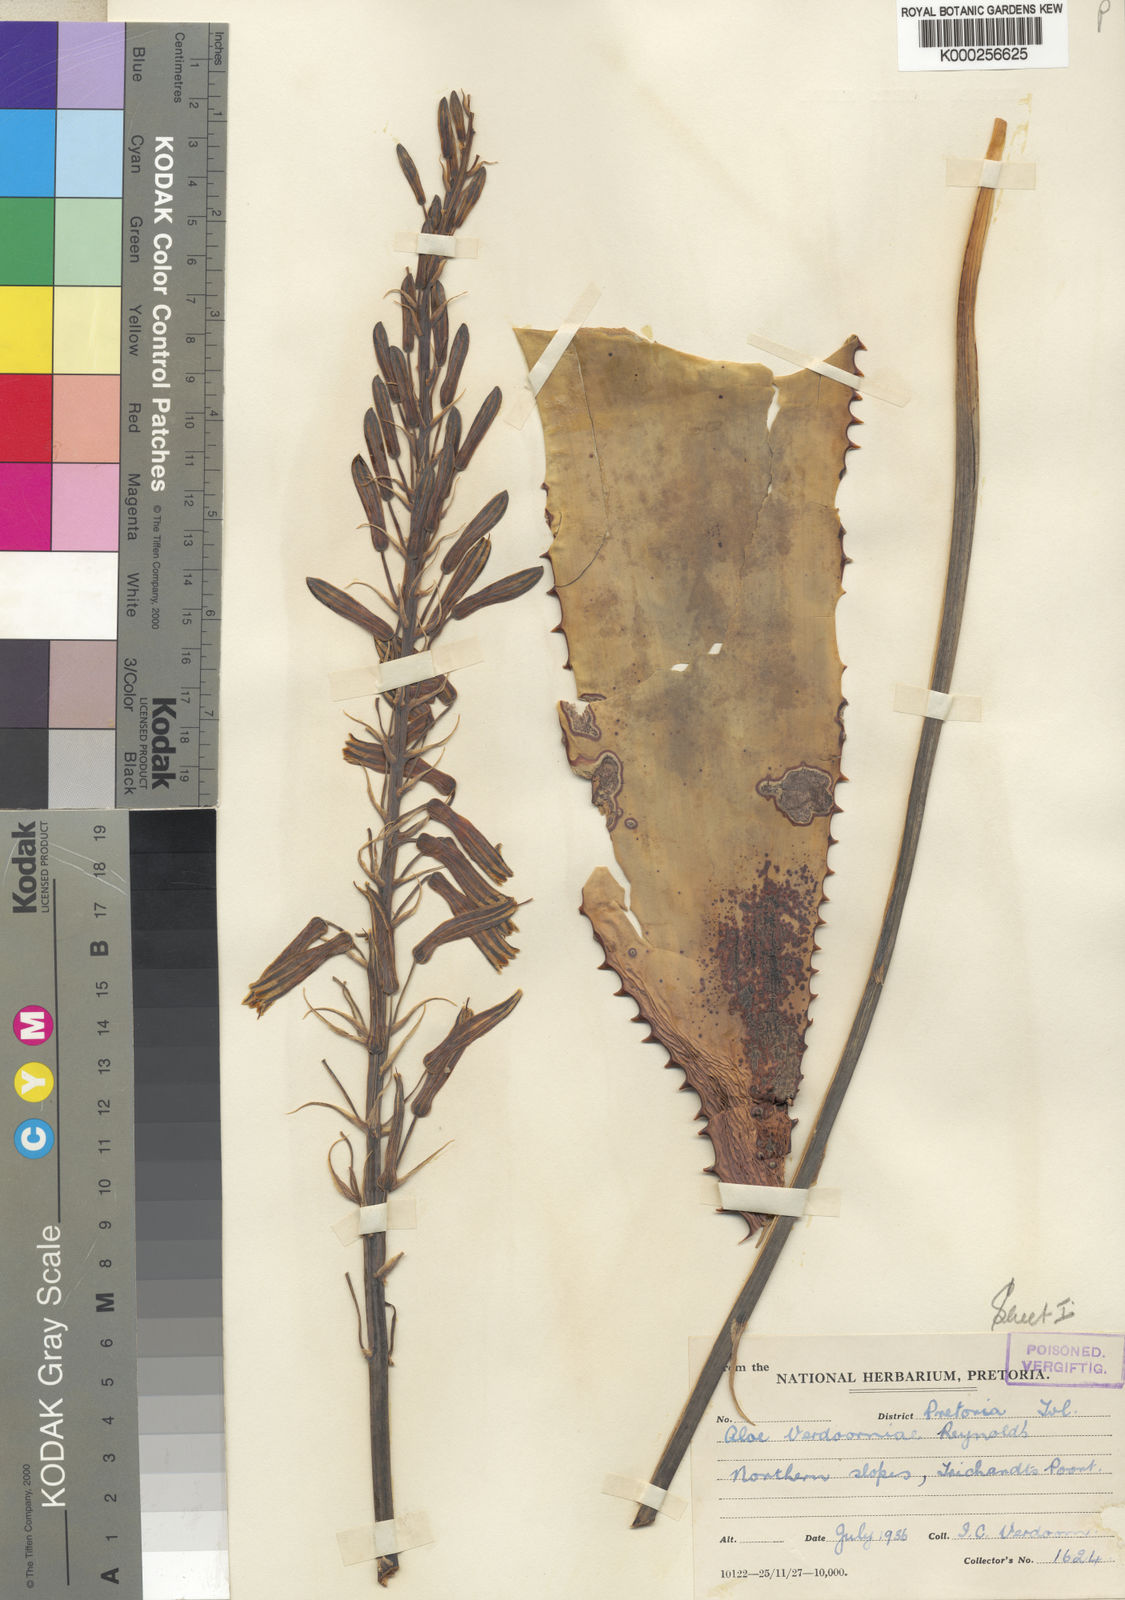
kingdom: Plantae
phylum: Tracheophyta
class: Liliopsida
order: Asparagales
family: Asphodelaceae
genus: Aloe
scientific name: Aloe davyana
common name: Spotted aloe
